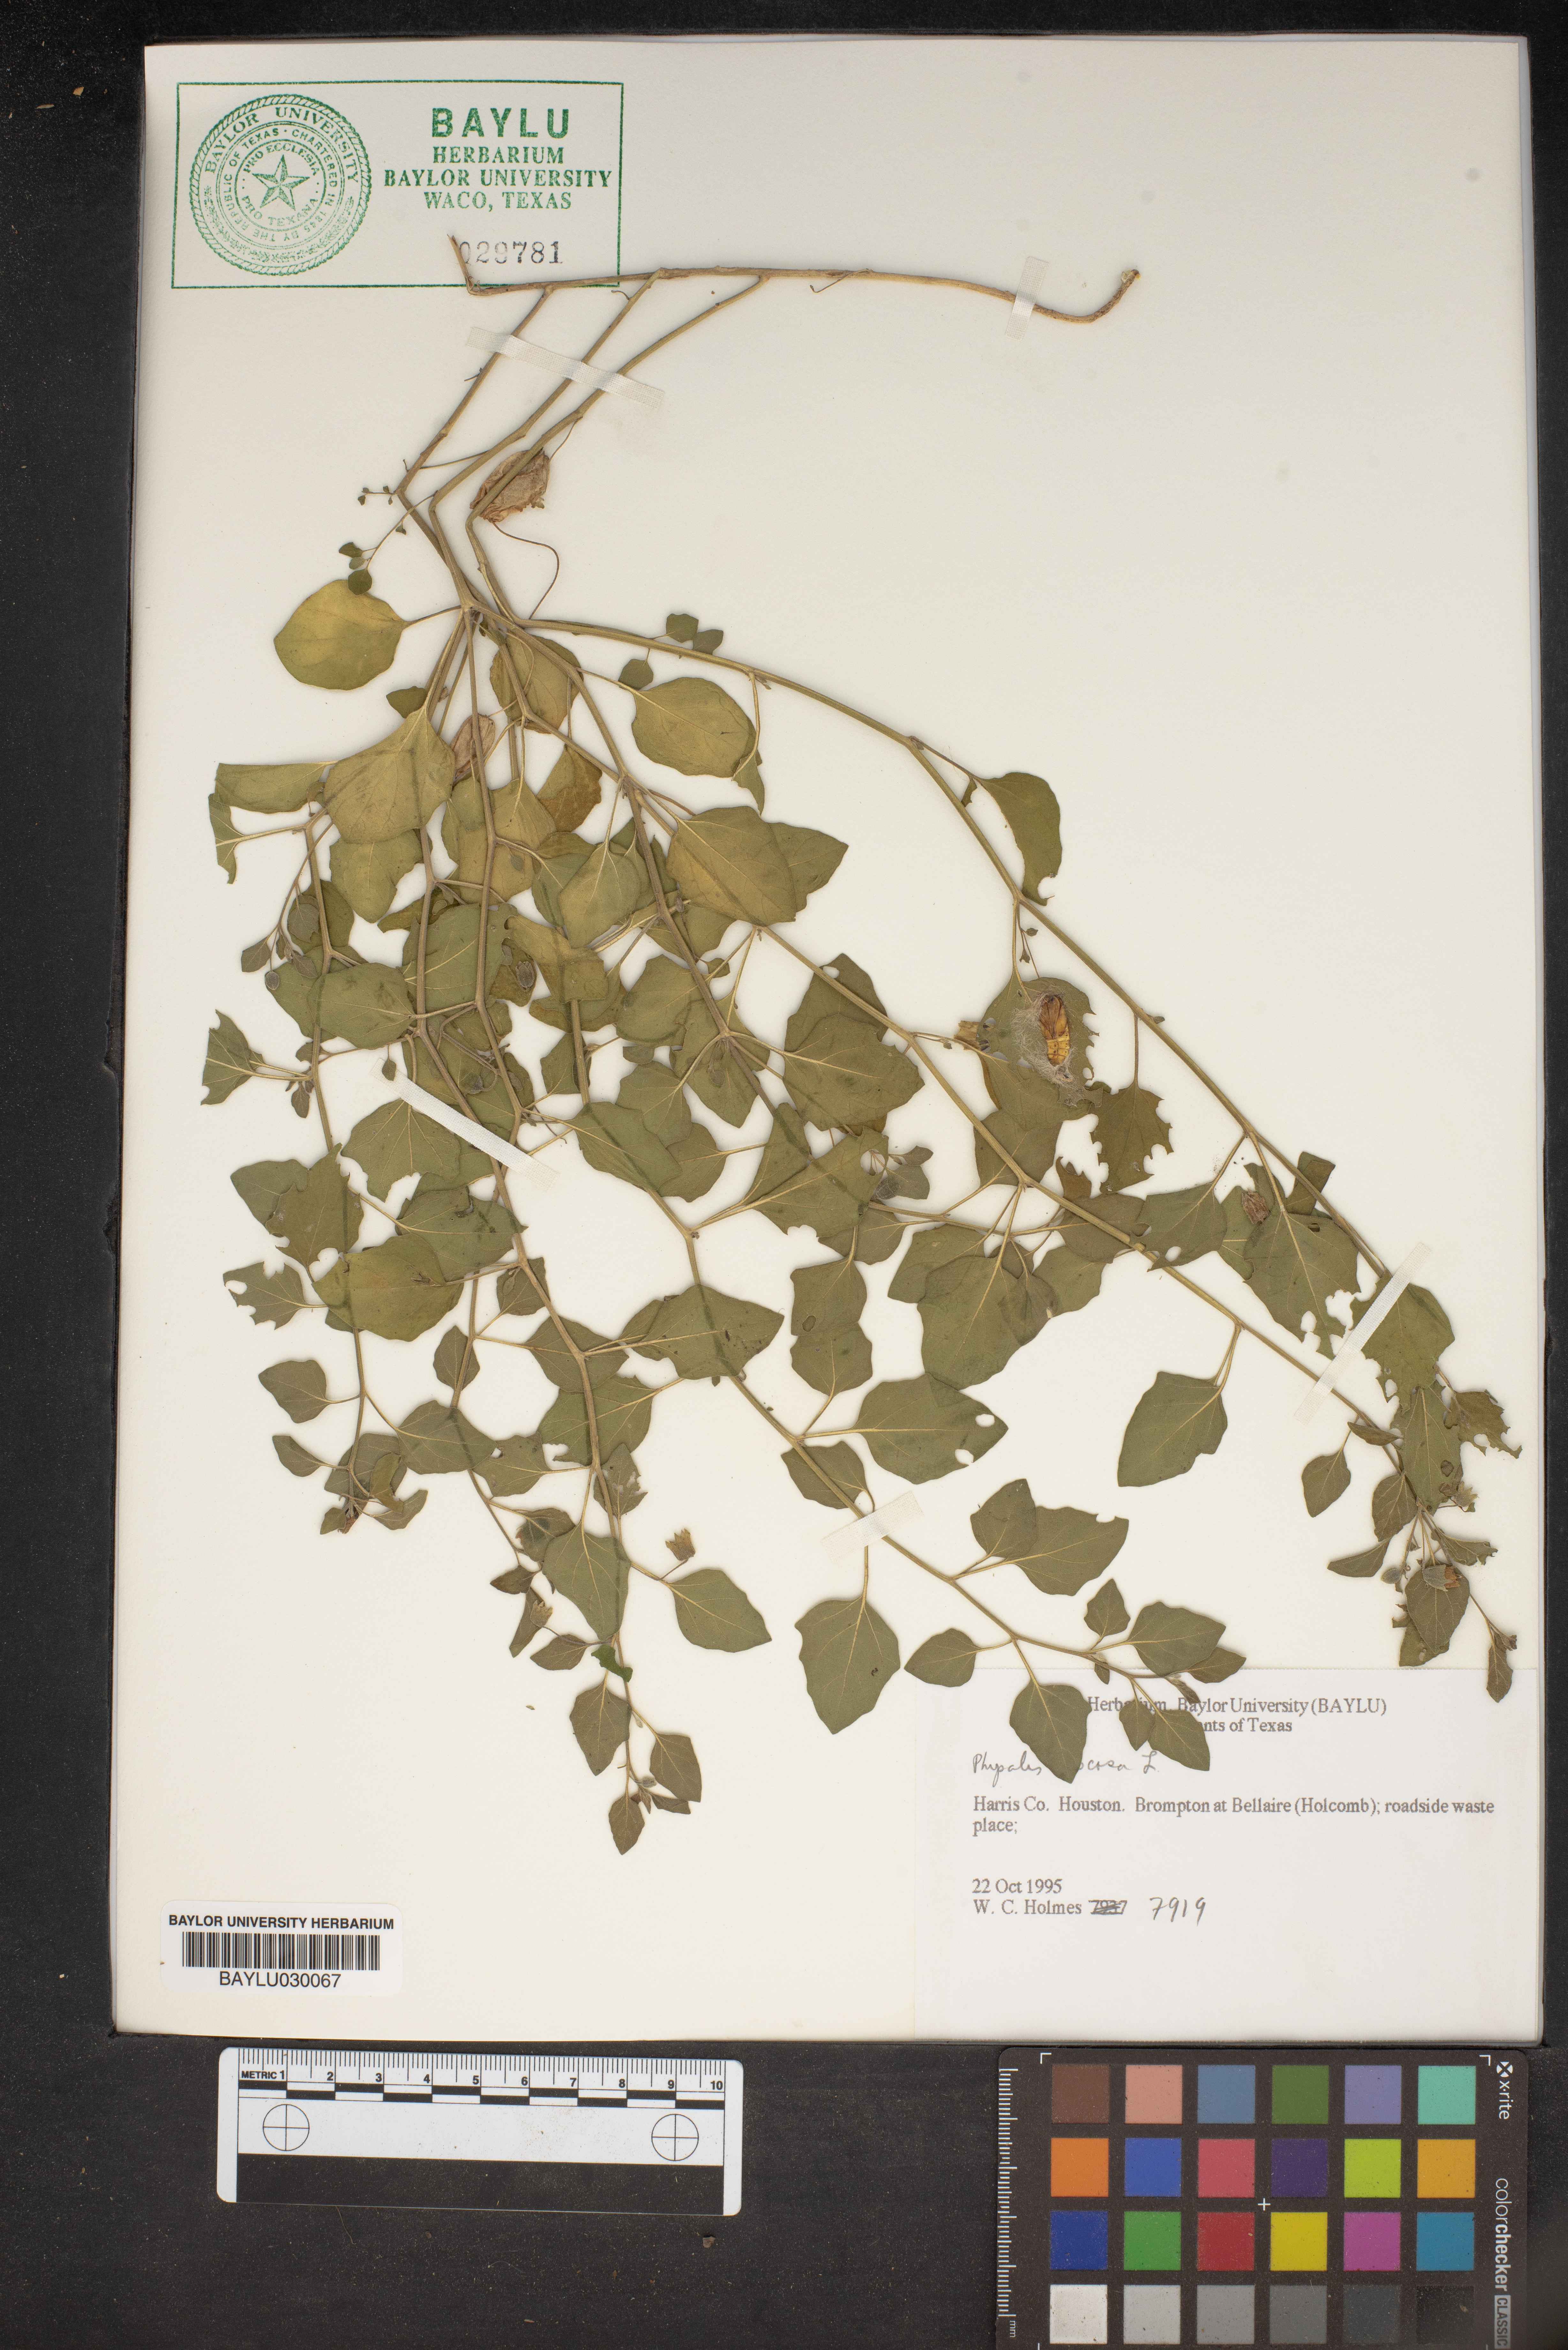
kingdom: Plantae
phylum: Tracheophyta
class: Magnoliopsida
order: Solanales
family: Solanaceae
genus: Physalis
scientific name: Physalis viscosa
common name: Stellate ground-cherry
